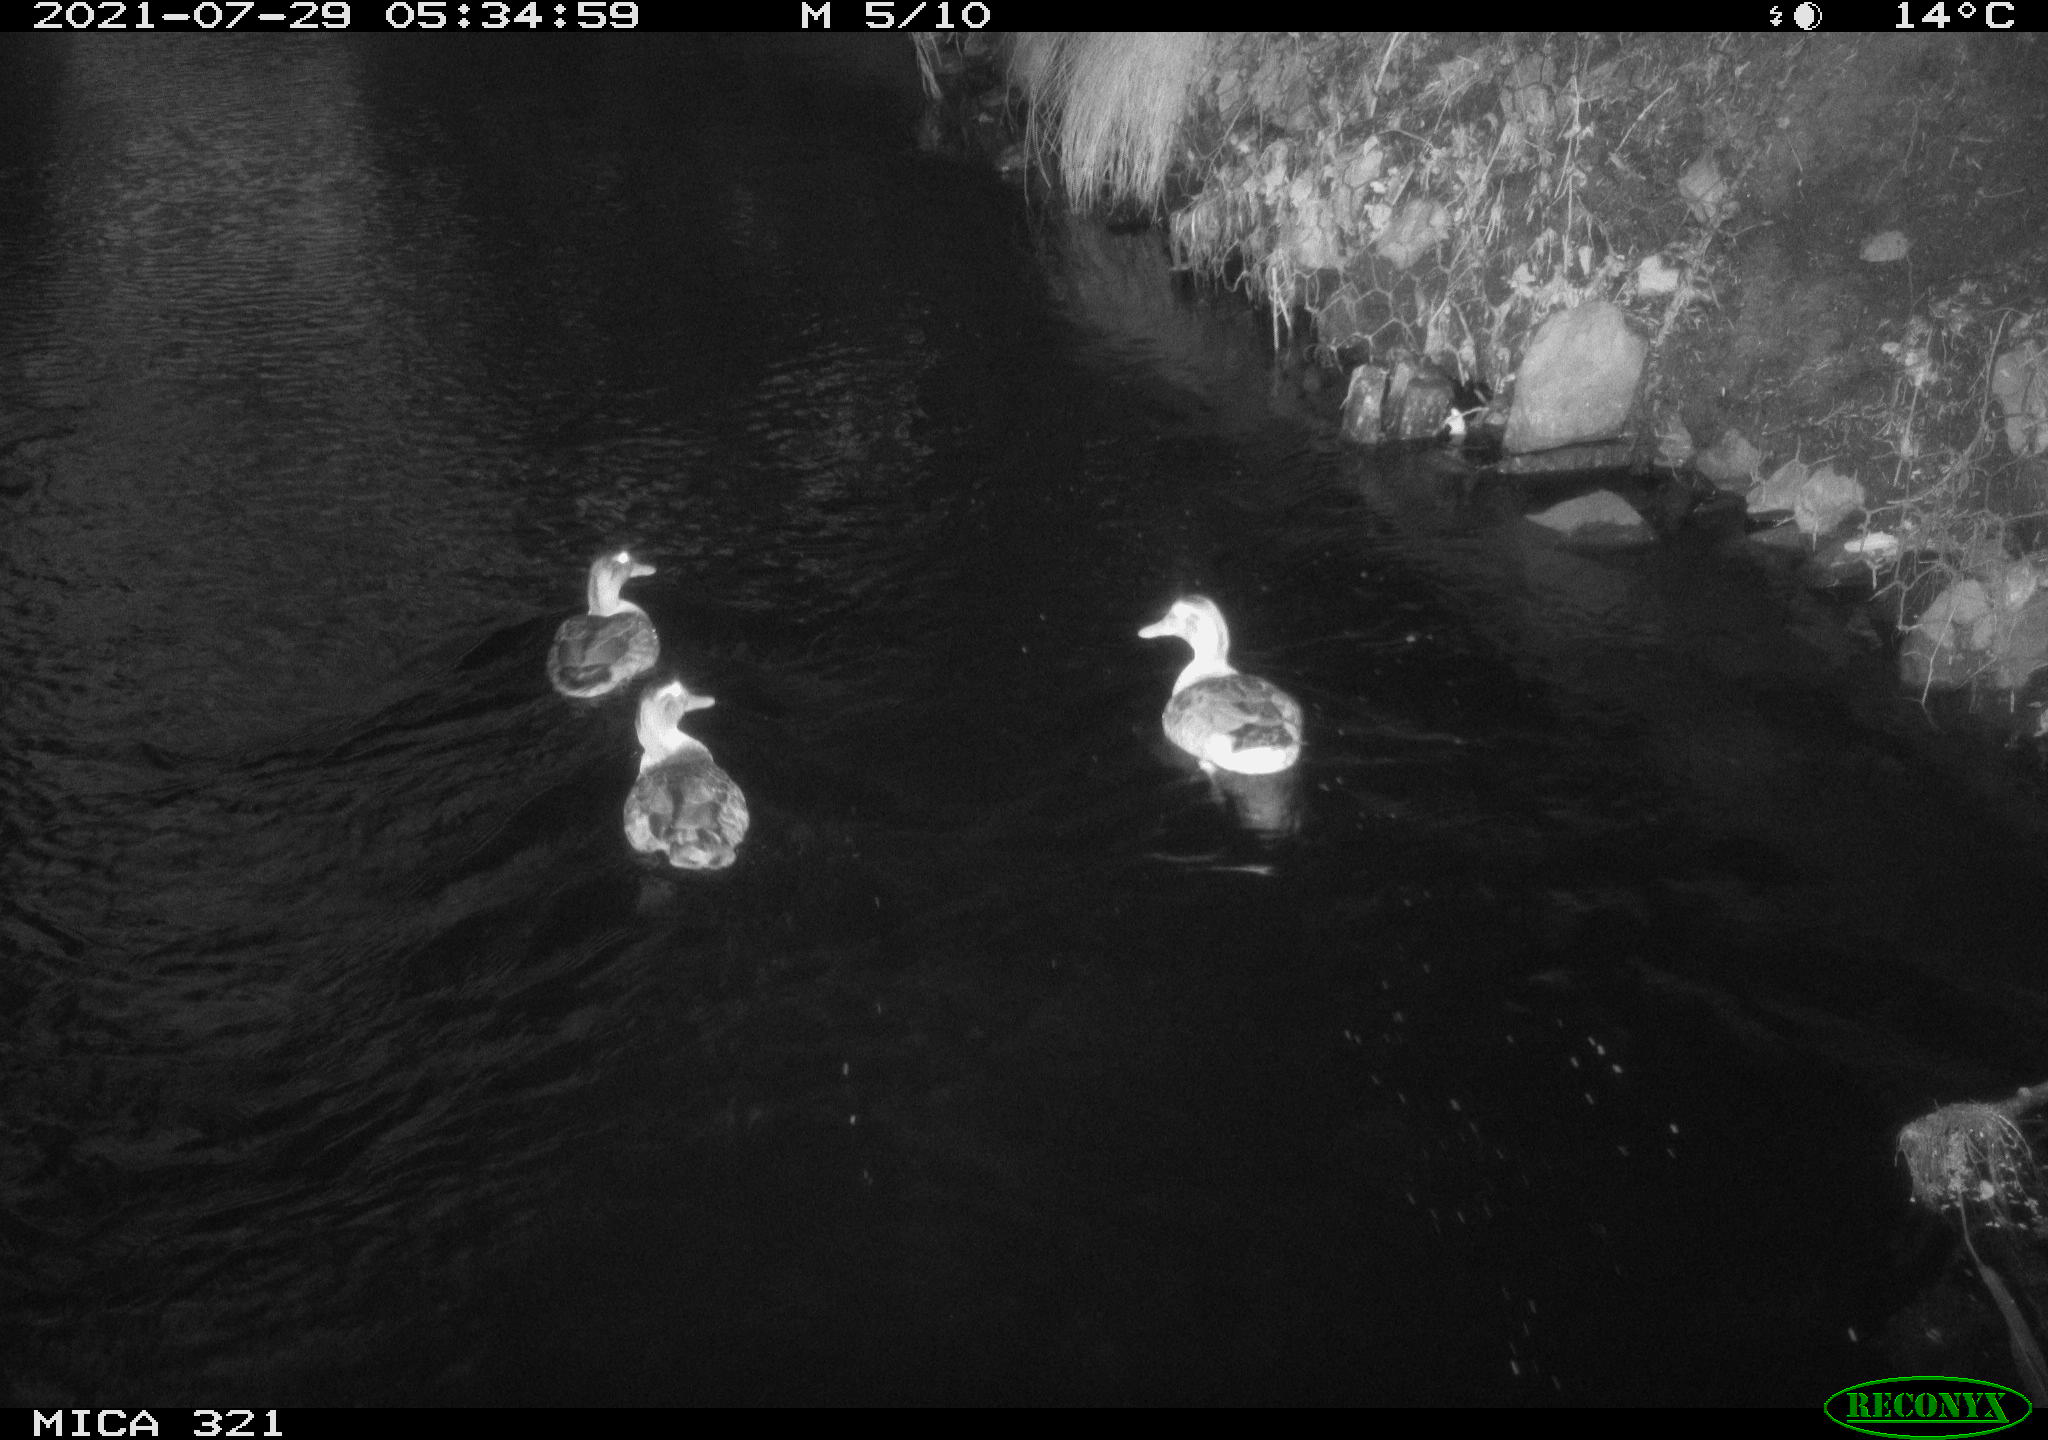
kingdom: Animalia
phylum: Chordata
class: Aves
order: Anseriformes
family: Anatidae
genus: Anas
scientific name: Anas platyrhynchos
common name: Mallard
